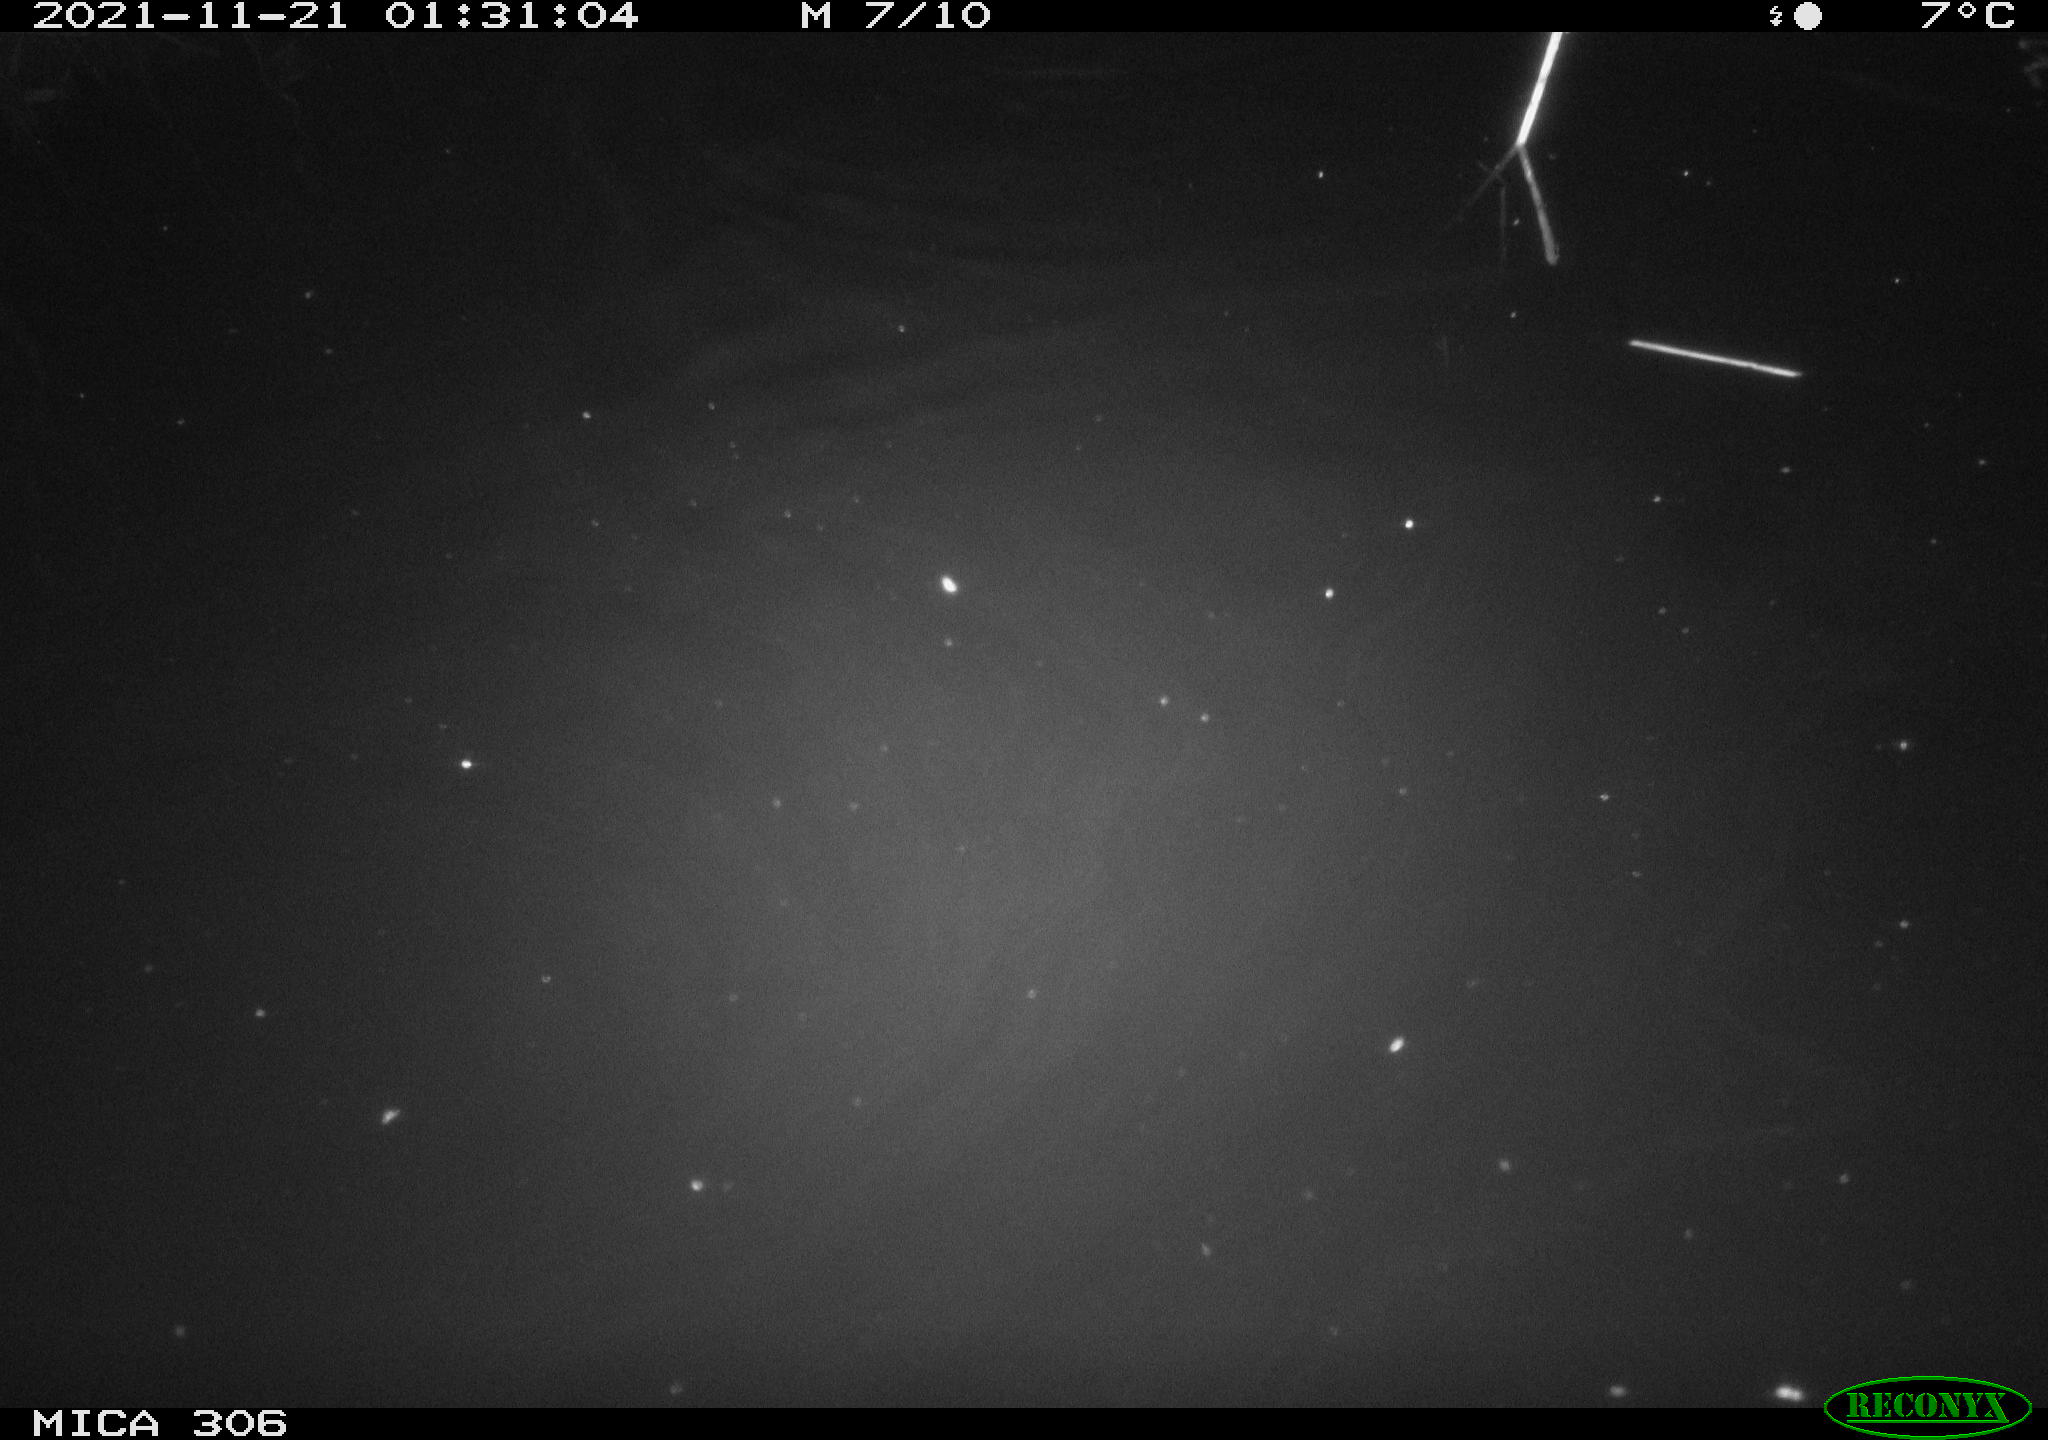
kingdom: Animalia
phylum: Chordata
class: Mammalia
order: Rodentia
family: Cricetidae
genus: Ondatra
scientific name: Ondatra zibethicus
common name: Muskrat
